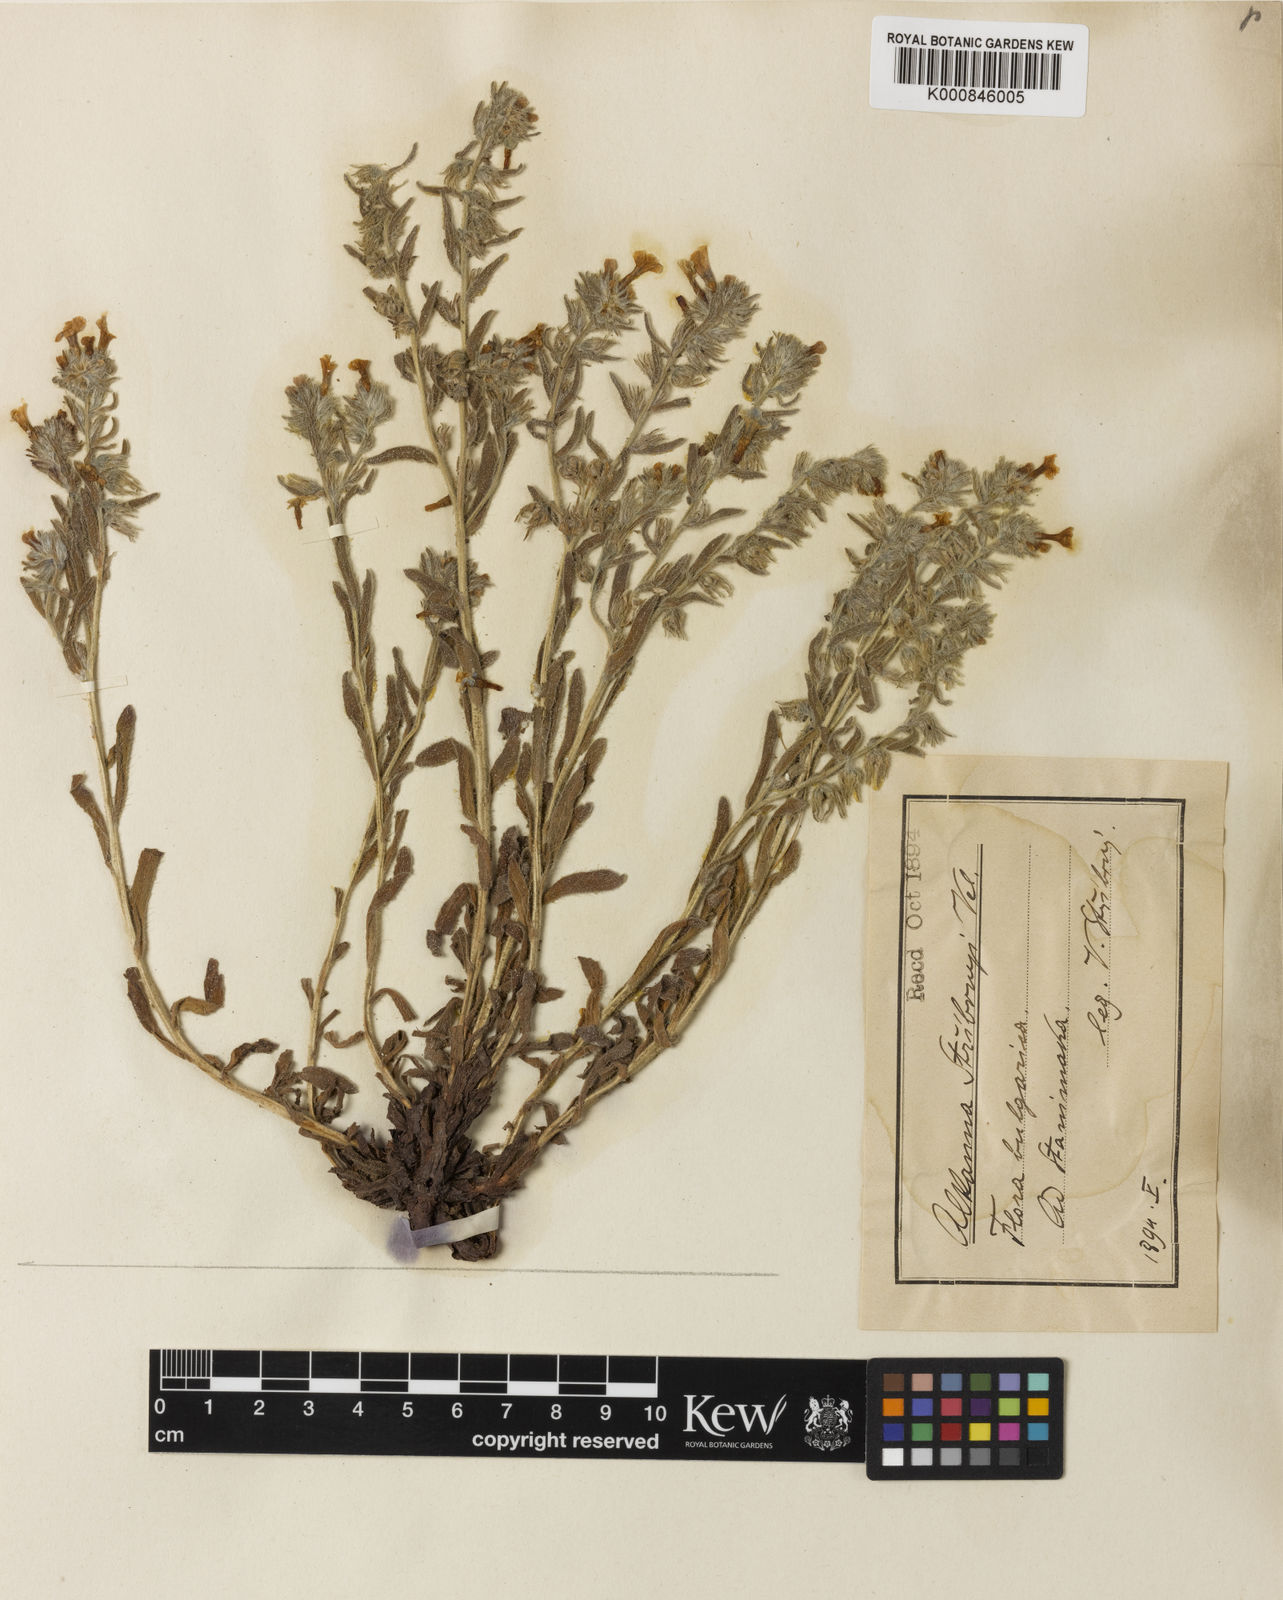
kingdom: Plantae
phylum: Tracheophyta
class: Magnoliopsida
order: Boraginales
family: Boraginaceae
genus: Alkanna
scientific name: Alkanna stribrnyi
